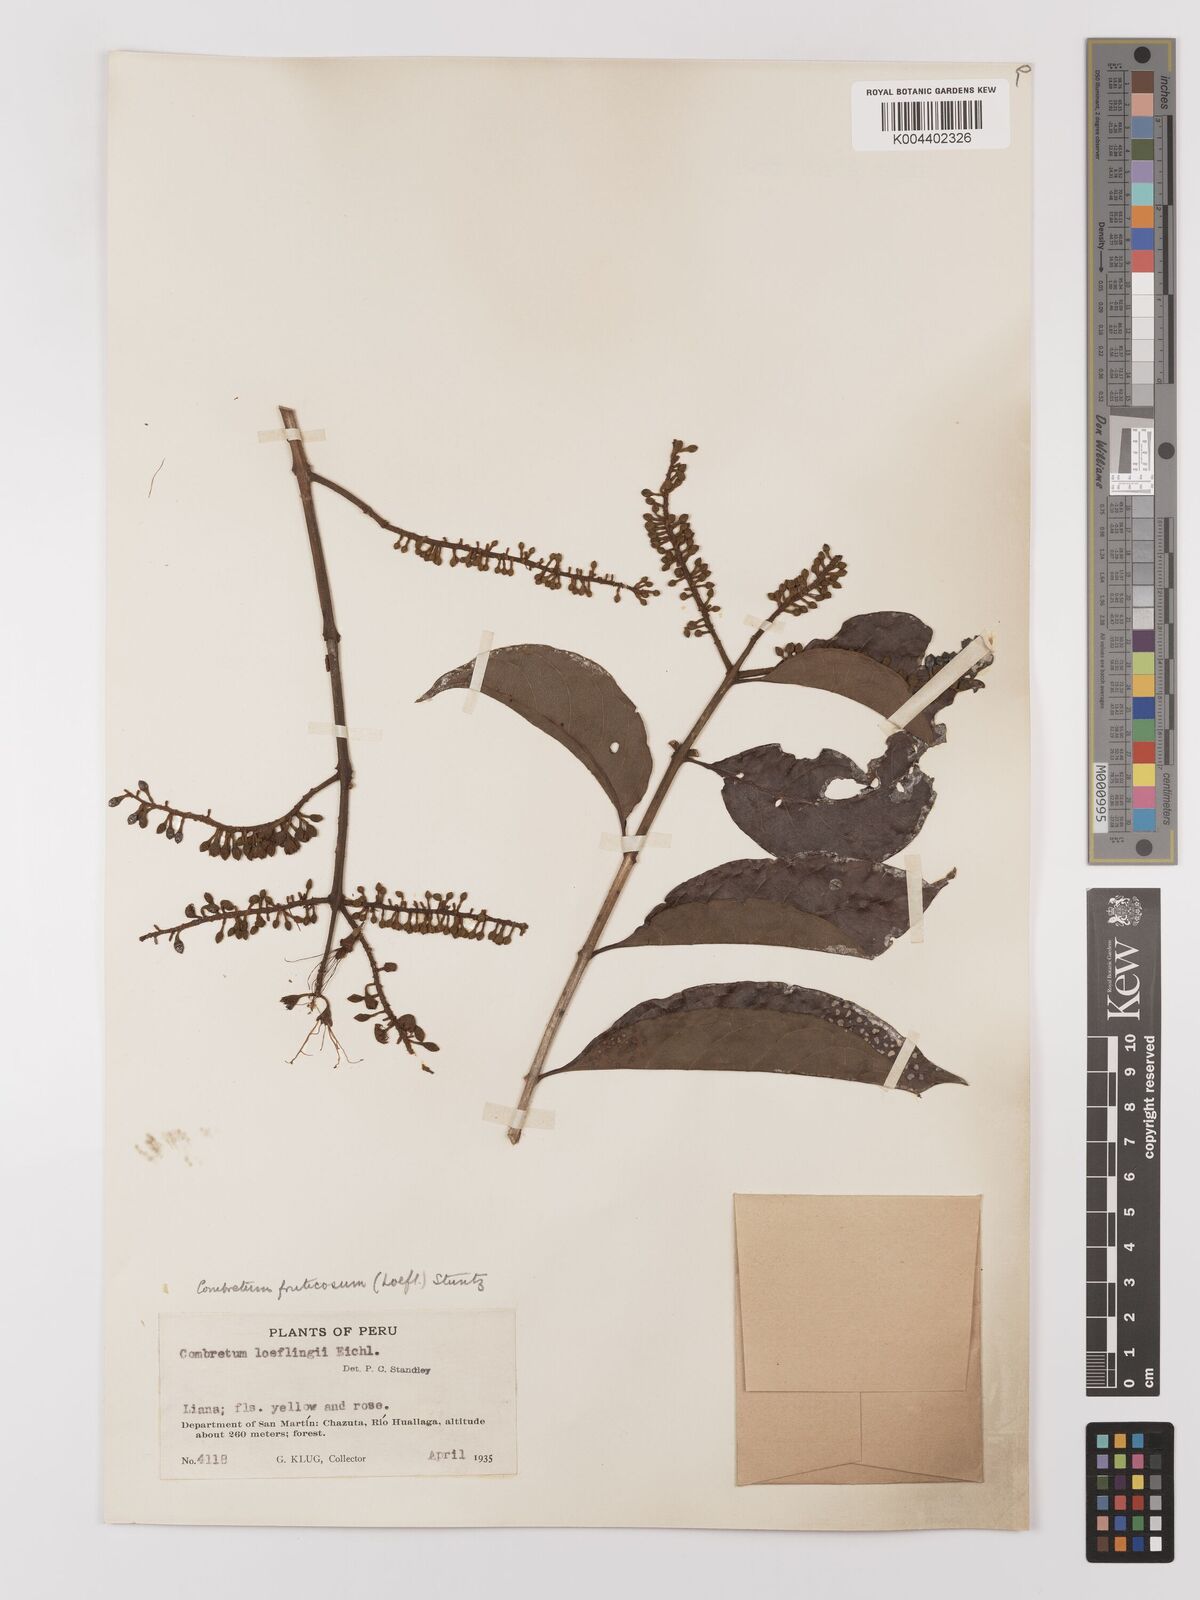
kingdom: Plantae
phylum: Tracheophyta
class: Magnoliopsida
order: Myrtales
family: Combretaceae
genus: Combretum
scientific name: Combretum fruticosum
